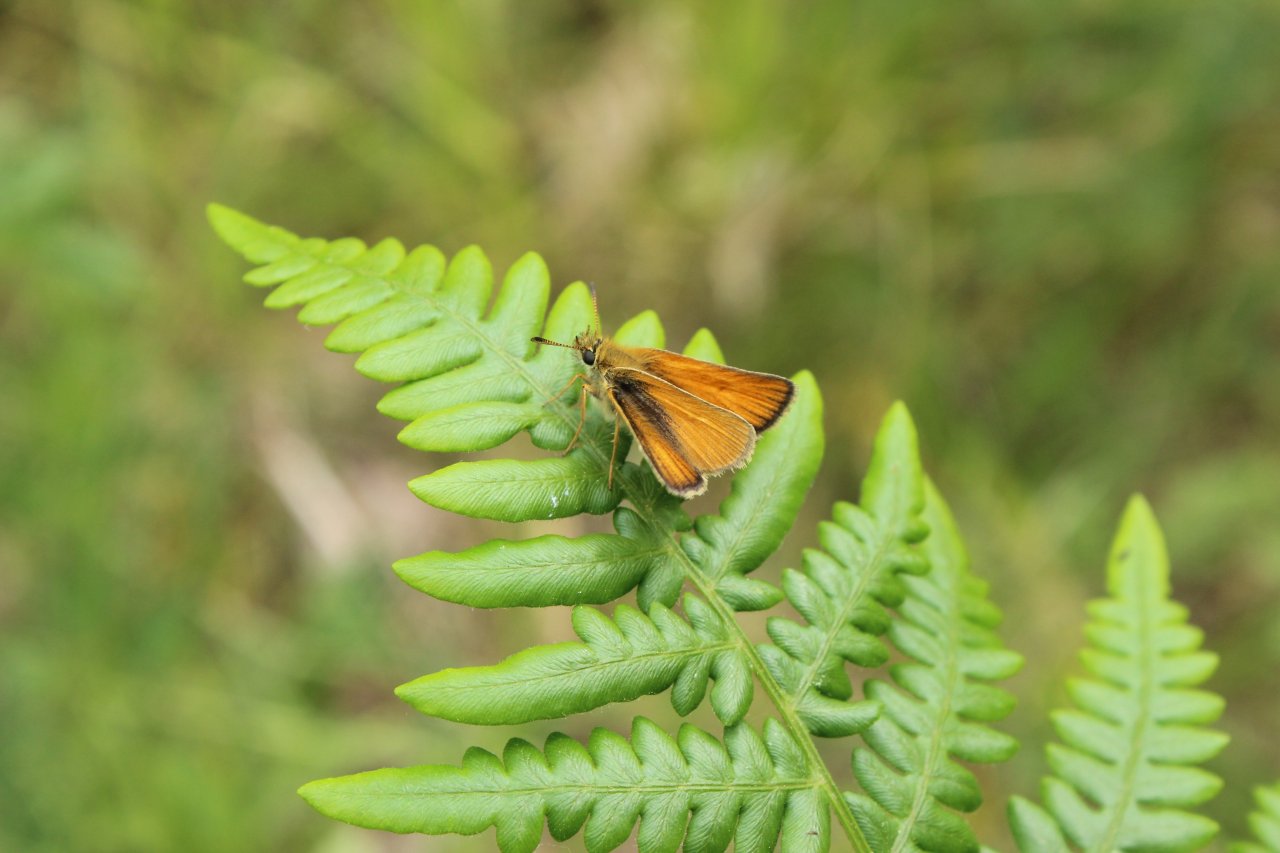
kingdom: Animalia
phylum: Arthropoda
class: Insecta
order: Lepidoptera
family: Hesperiidae
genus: Thymelicus
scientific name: Thymelicus lineola
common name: European Skipper
